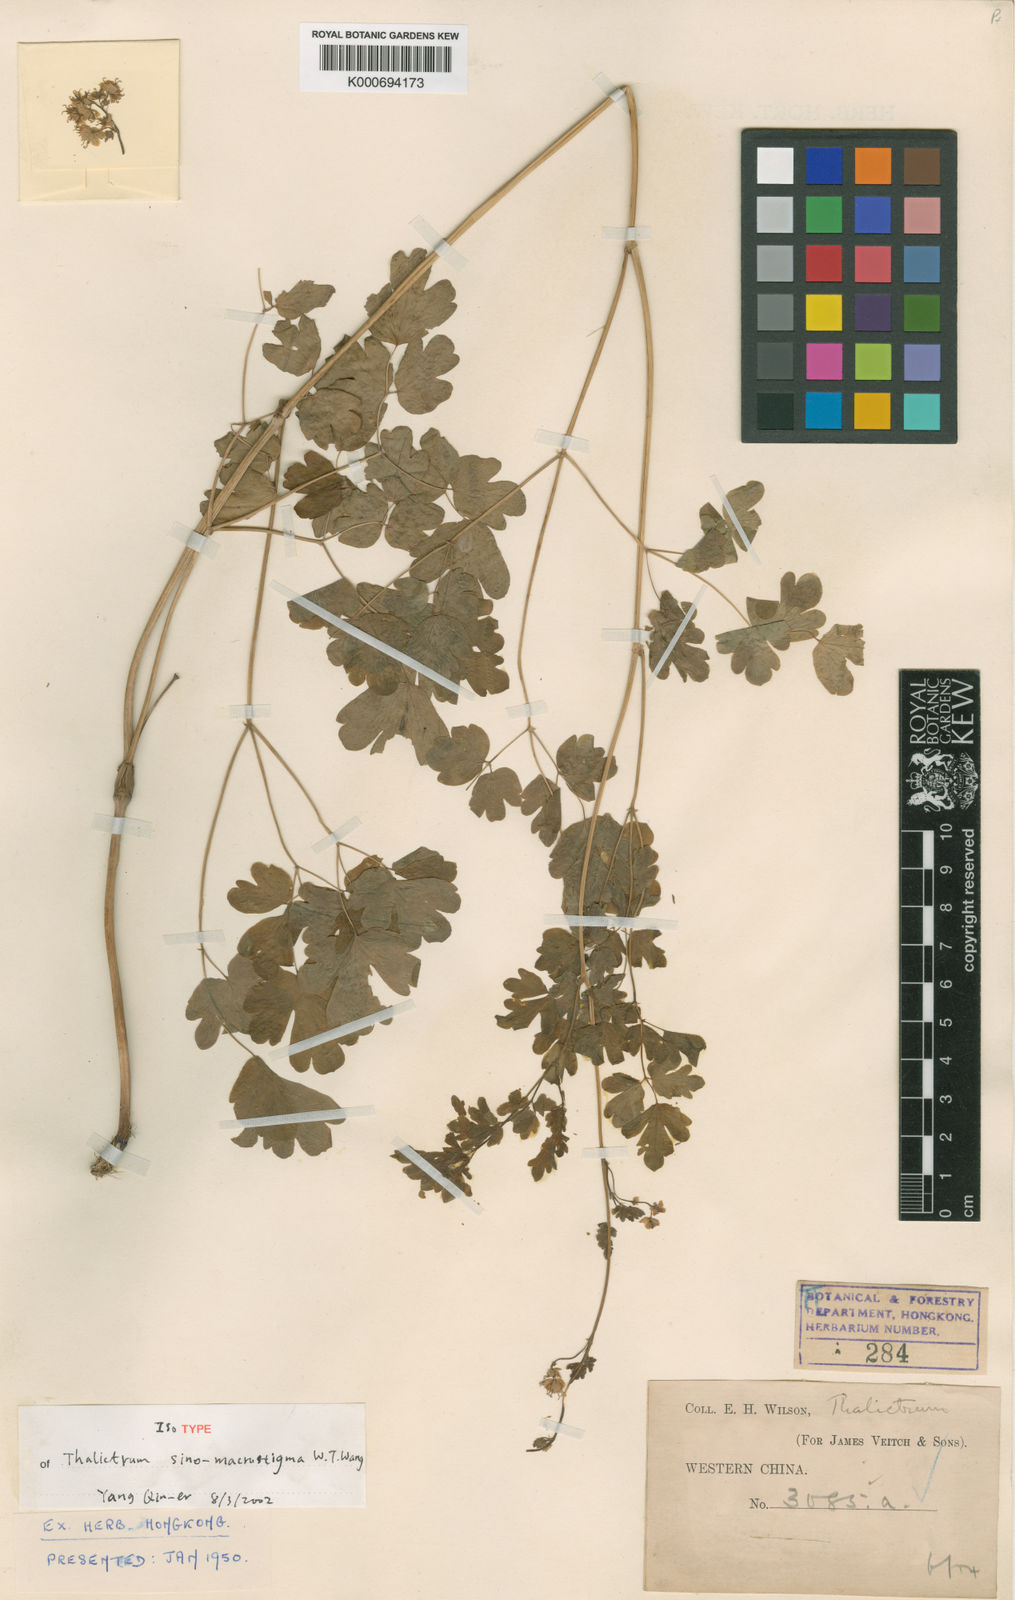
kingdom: Plantae
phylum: Tracheophyta
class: Magnoliopsida
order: Ranunculales
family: Ranunculaceae
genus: Thalictrum
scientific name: Thalictrum leuconotum
